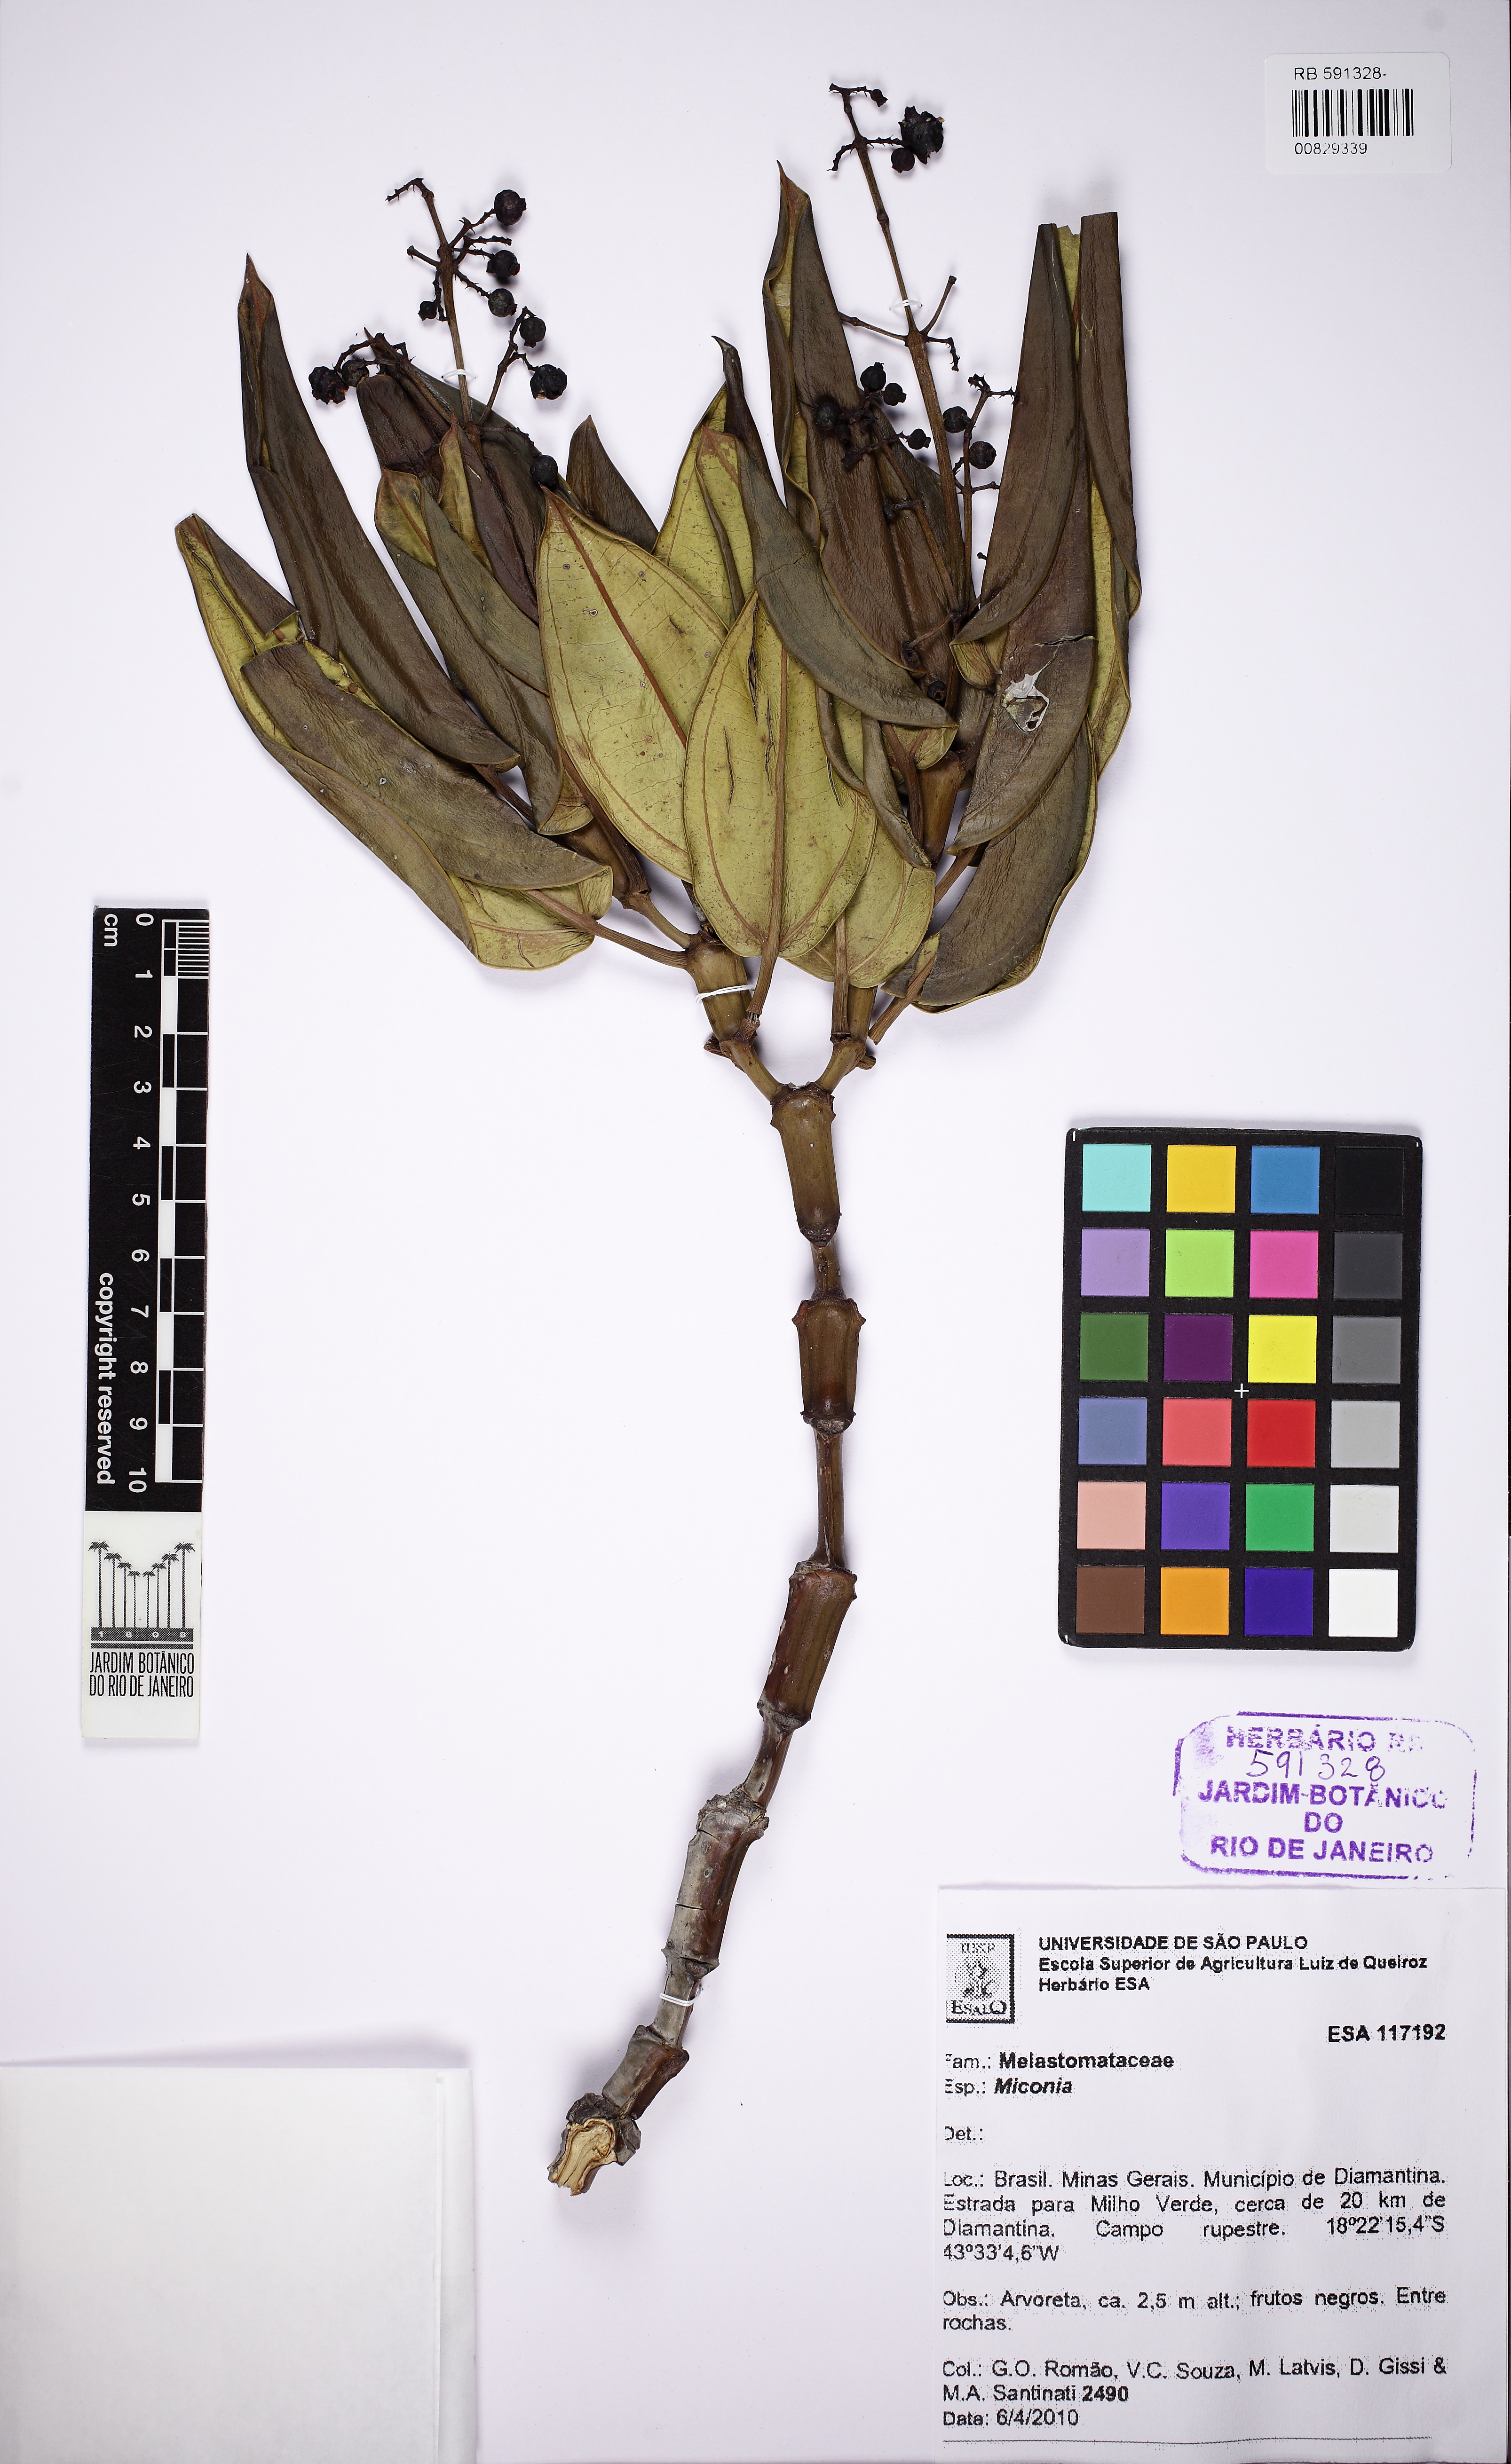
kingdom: Plantae
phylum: Tracheophyta
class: Magnoliopsida
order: Myrtales
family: Melastomataceae
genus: Miconia
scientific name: Miconia
